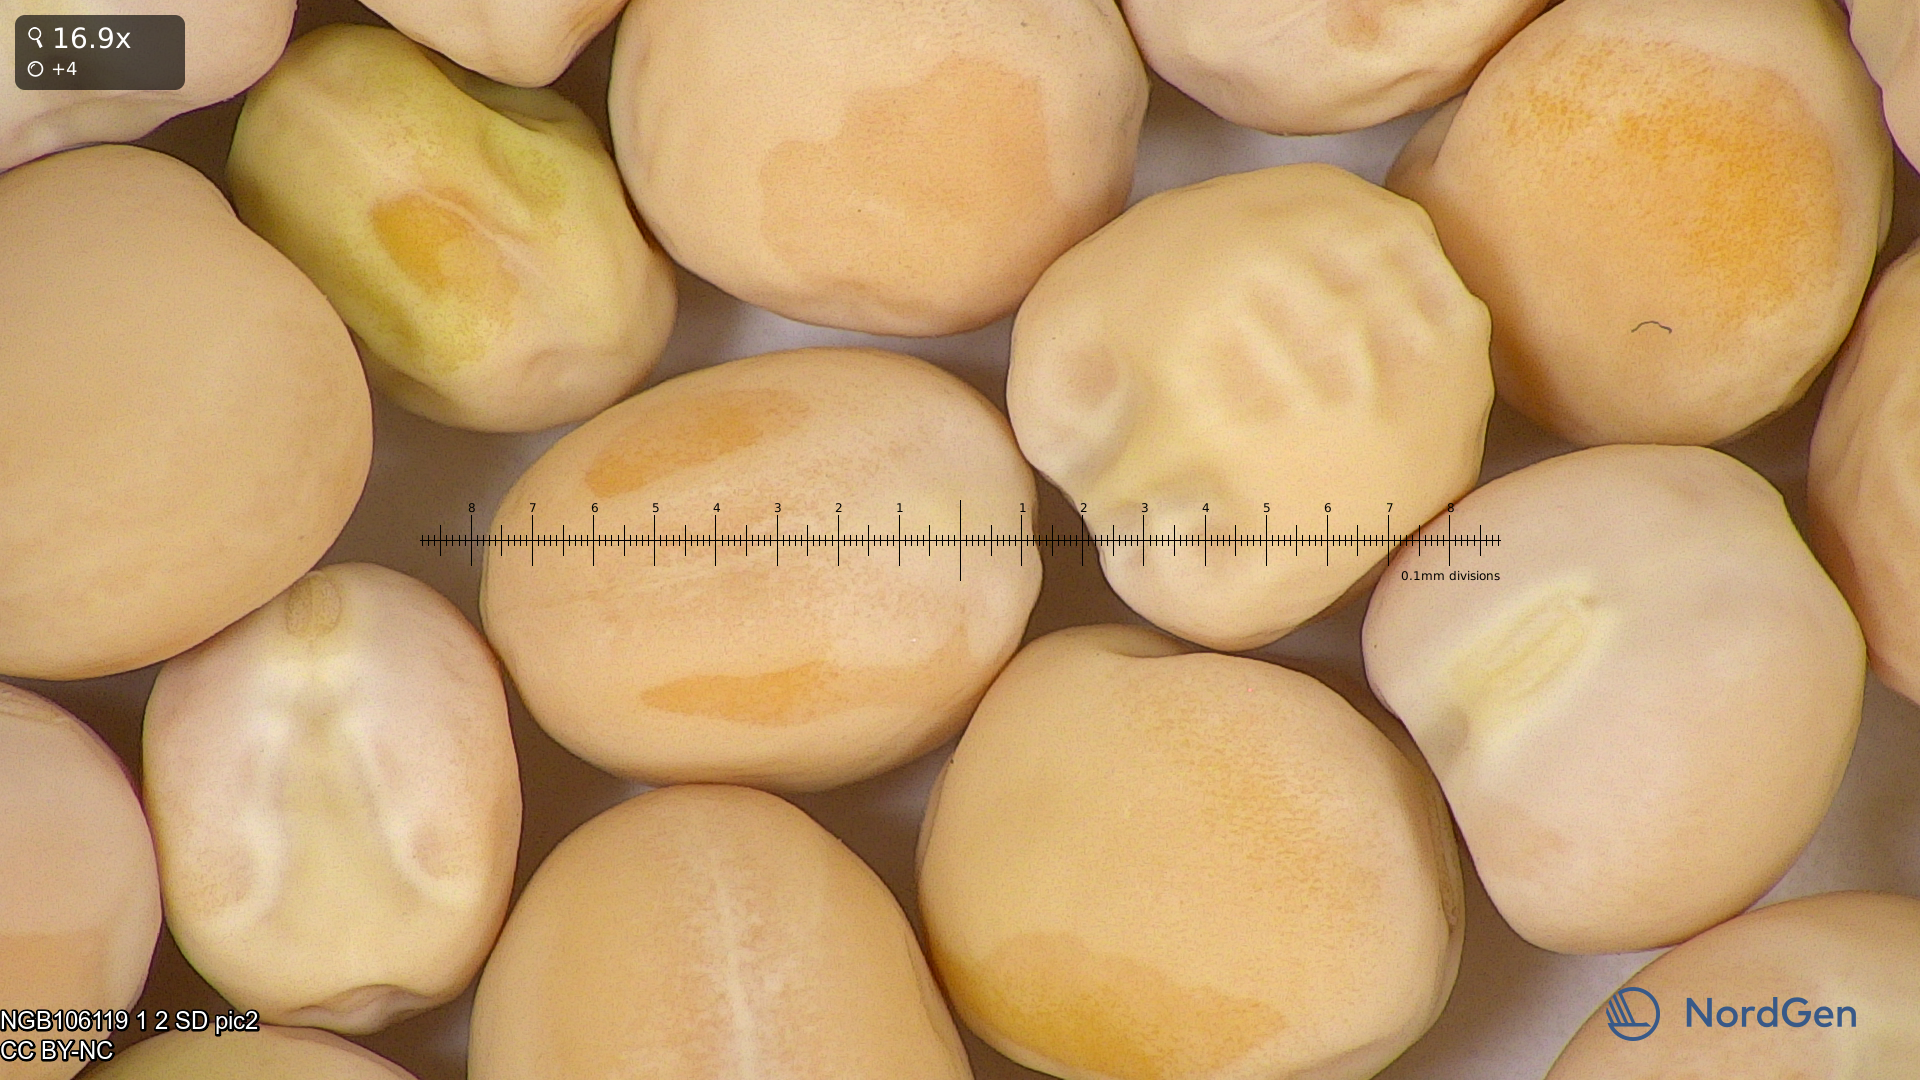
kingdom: Plantae
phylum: Tracheophyta
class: Magnoliopsida
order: Fabales
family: Fabaceae
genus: Lathyrus
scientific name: Lathyrus oleraceus
